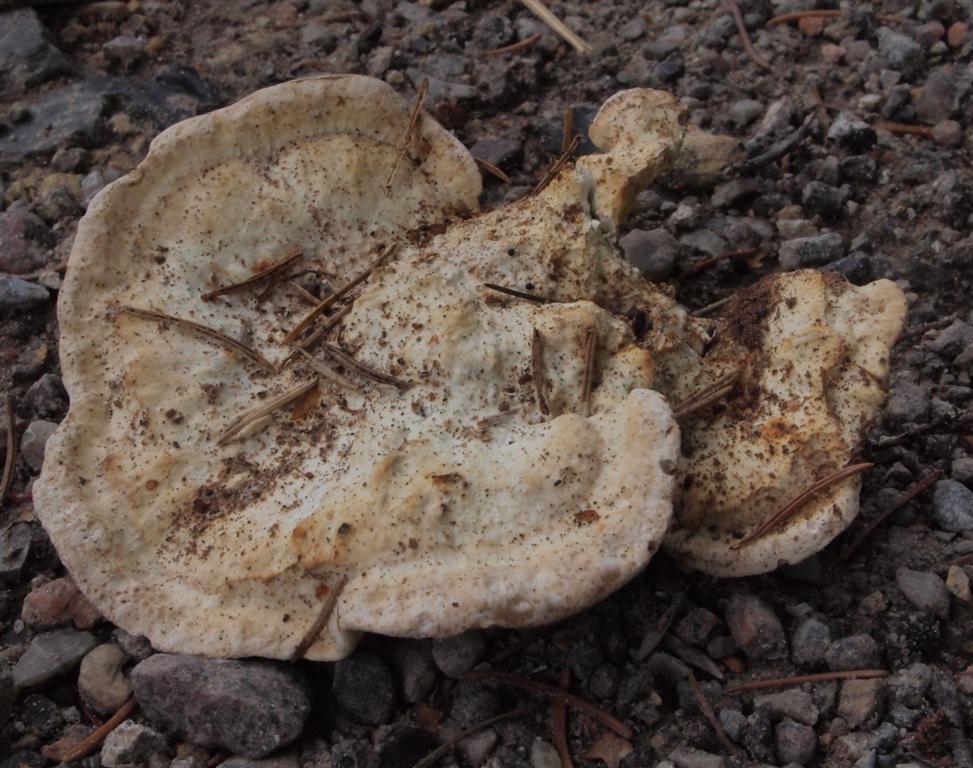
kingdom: Fungi
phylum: Basidiomycota
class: Agaricomycetes
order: Polyporales
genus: Calcipostia
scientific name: Calcipostia guttulata
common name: dråbe-kødporesvamp
